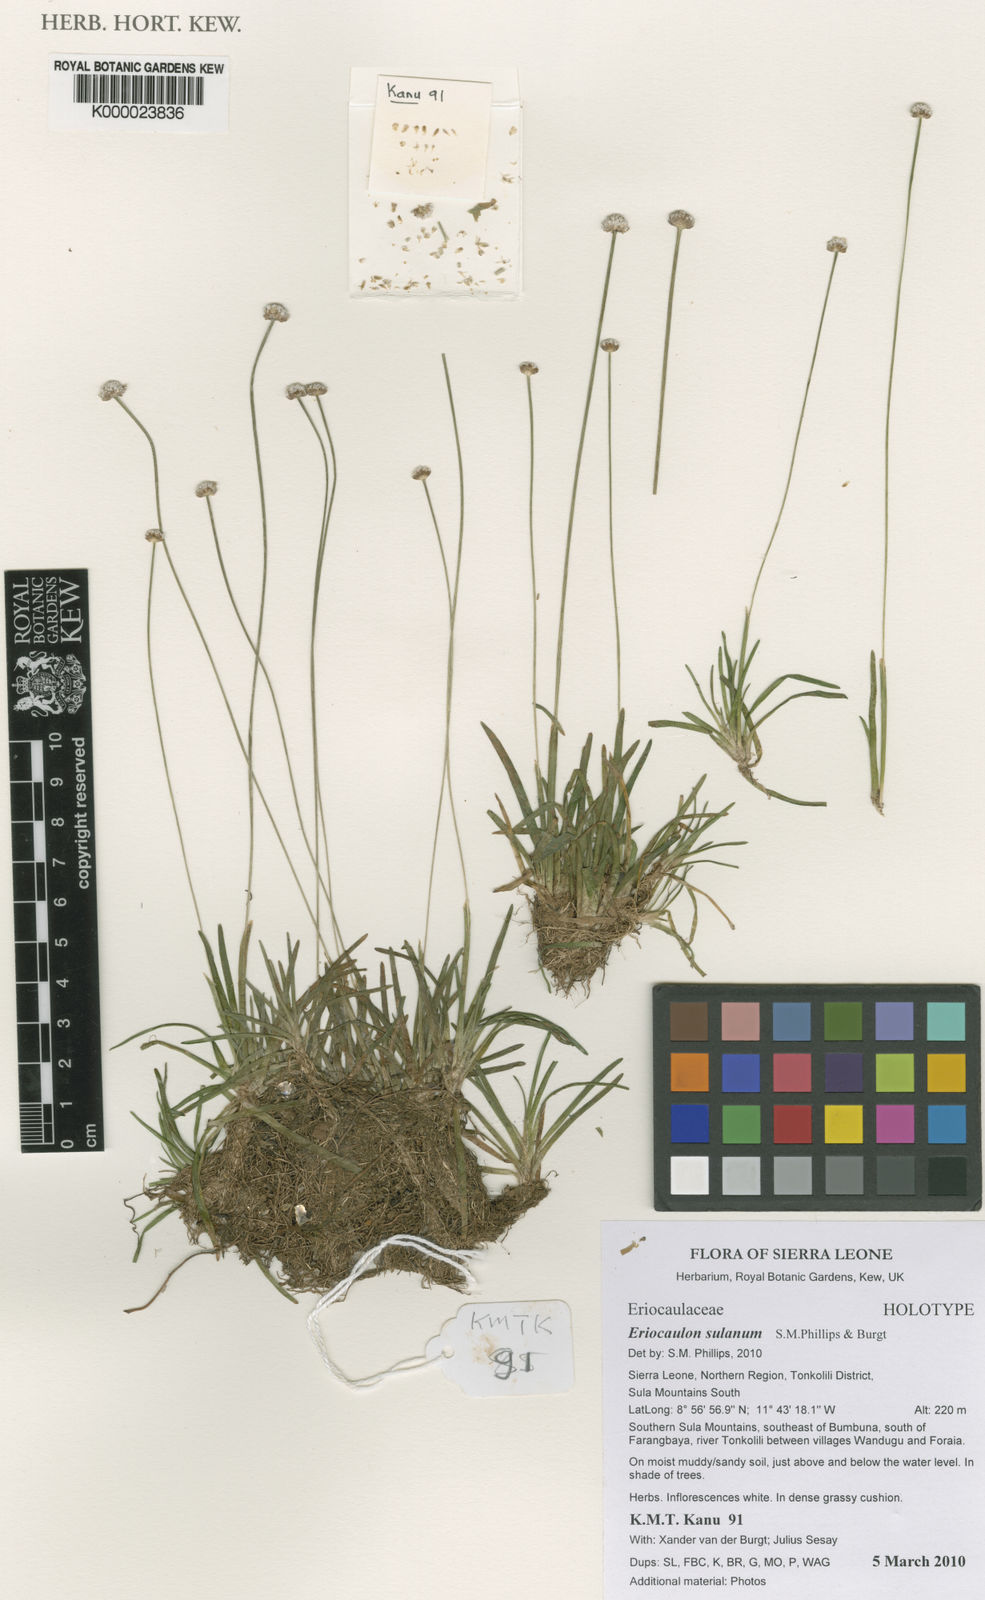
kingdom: Plantae
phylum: Tracheophyta
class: Liliopsida
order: Poales
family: Eriocaulaceae
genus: Eriocaulon
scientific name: Eriocaulon sulanum
